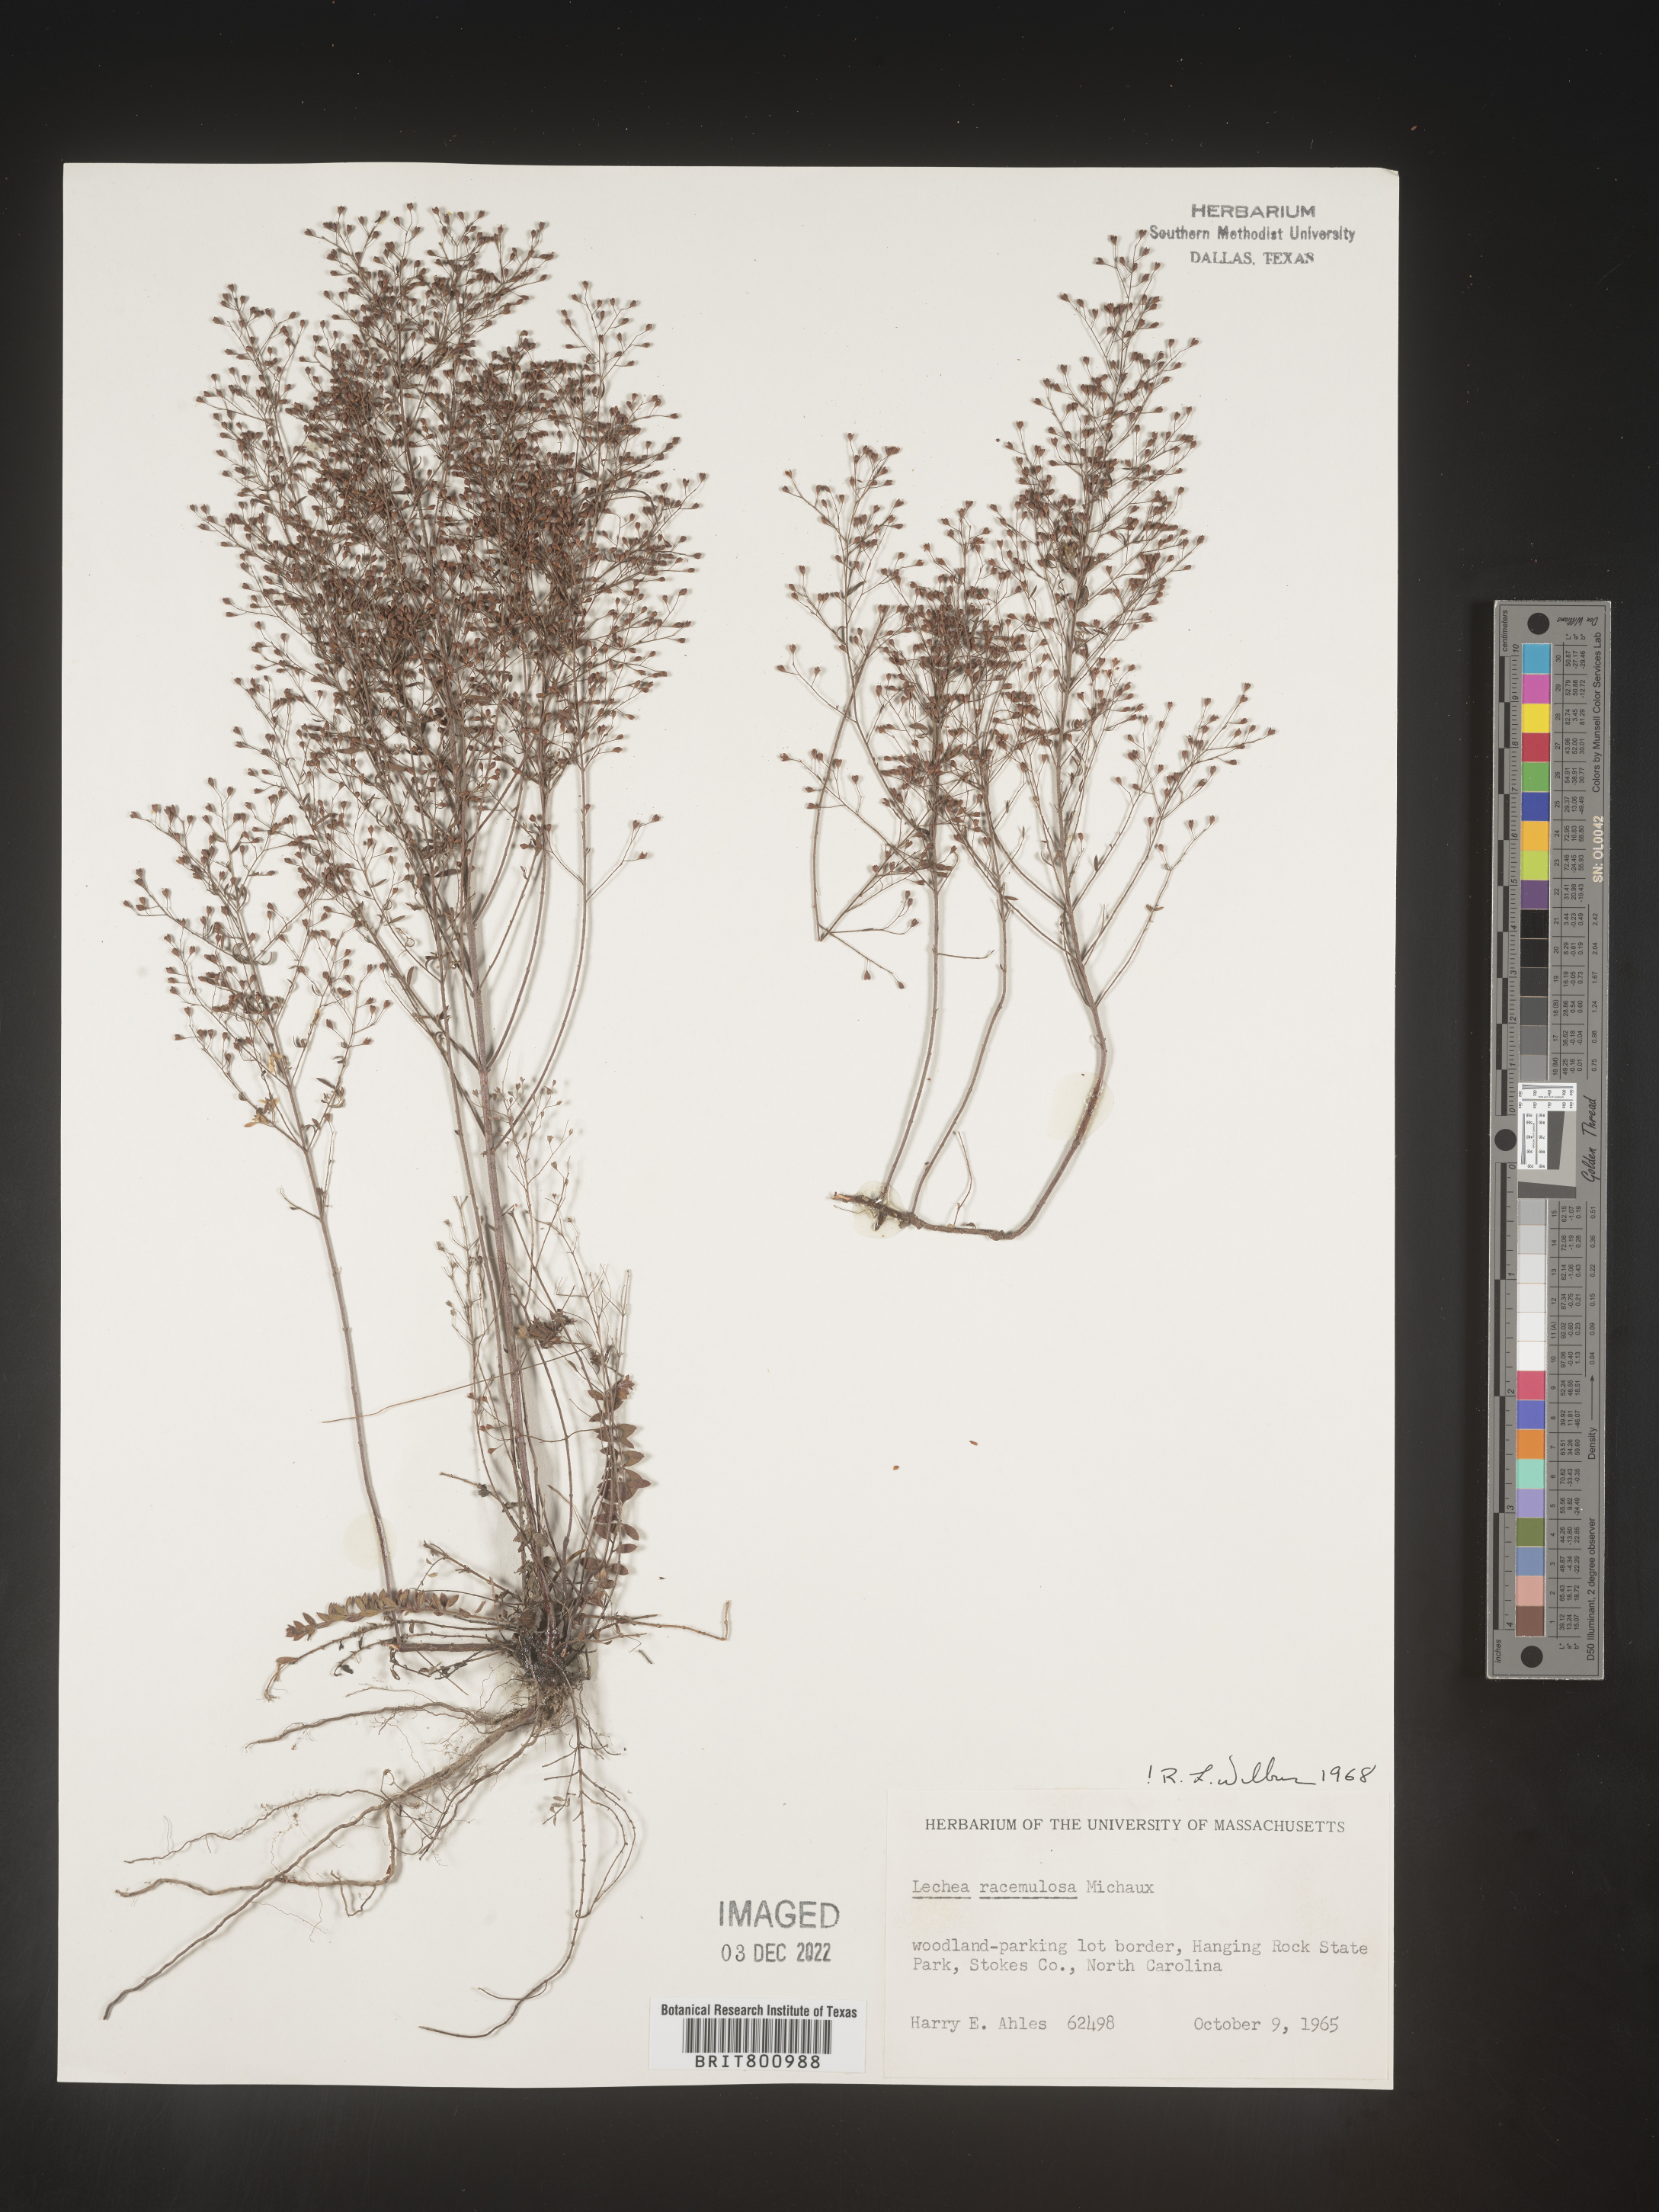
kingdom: Plantae
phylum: Tracheophyta
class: Magnoliopsida
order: Malvales
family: Cistaceae
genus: Lechea
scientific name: Lechea racemulosa
